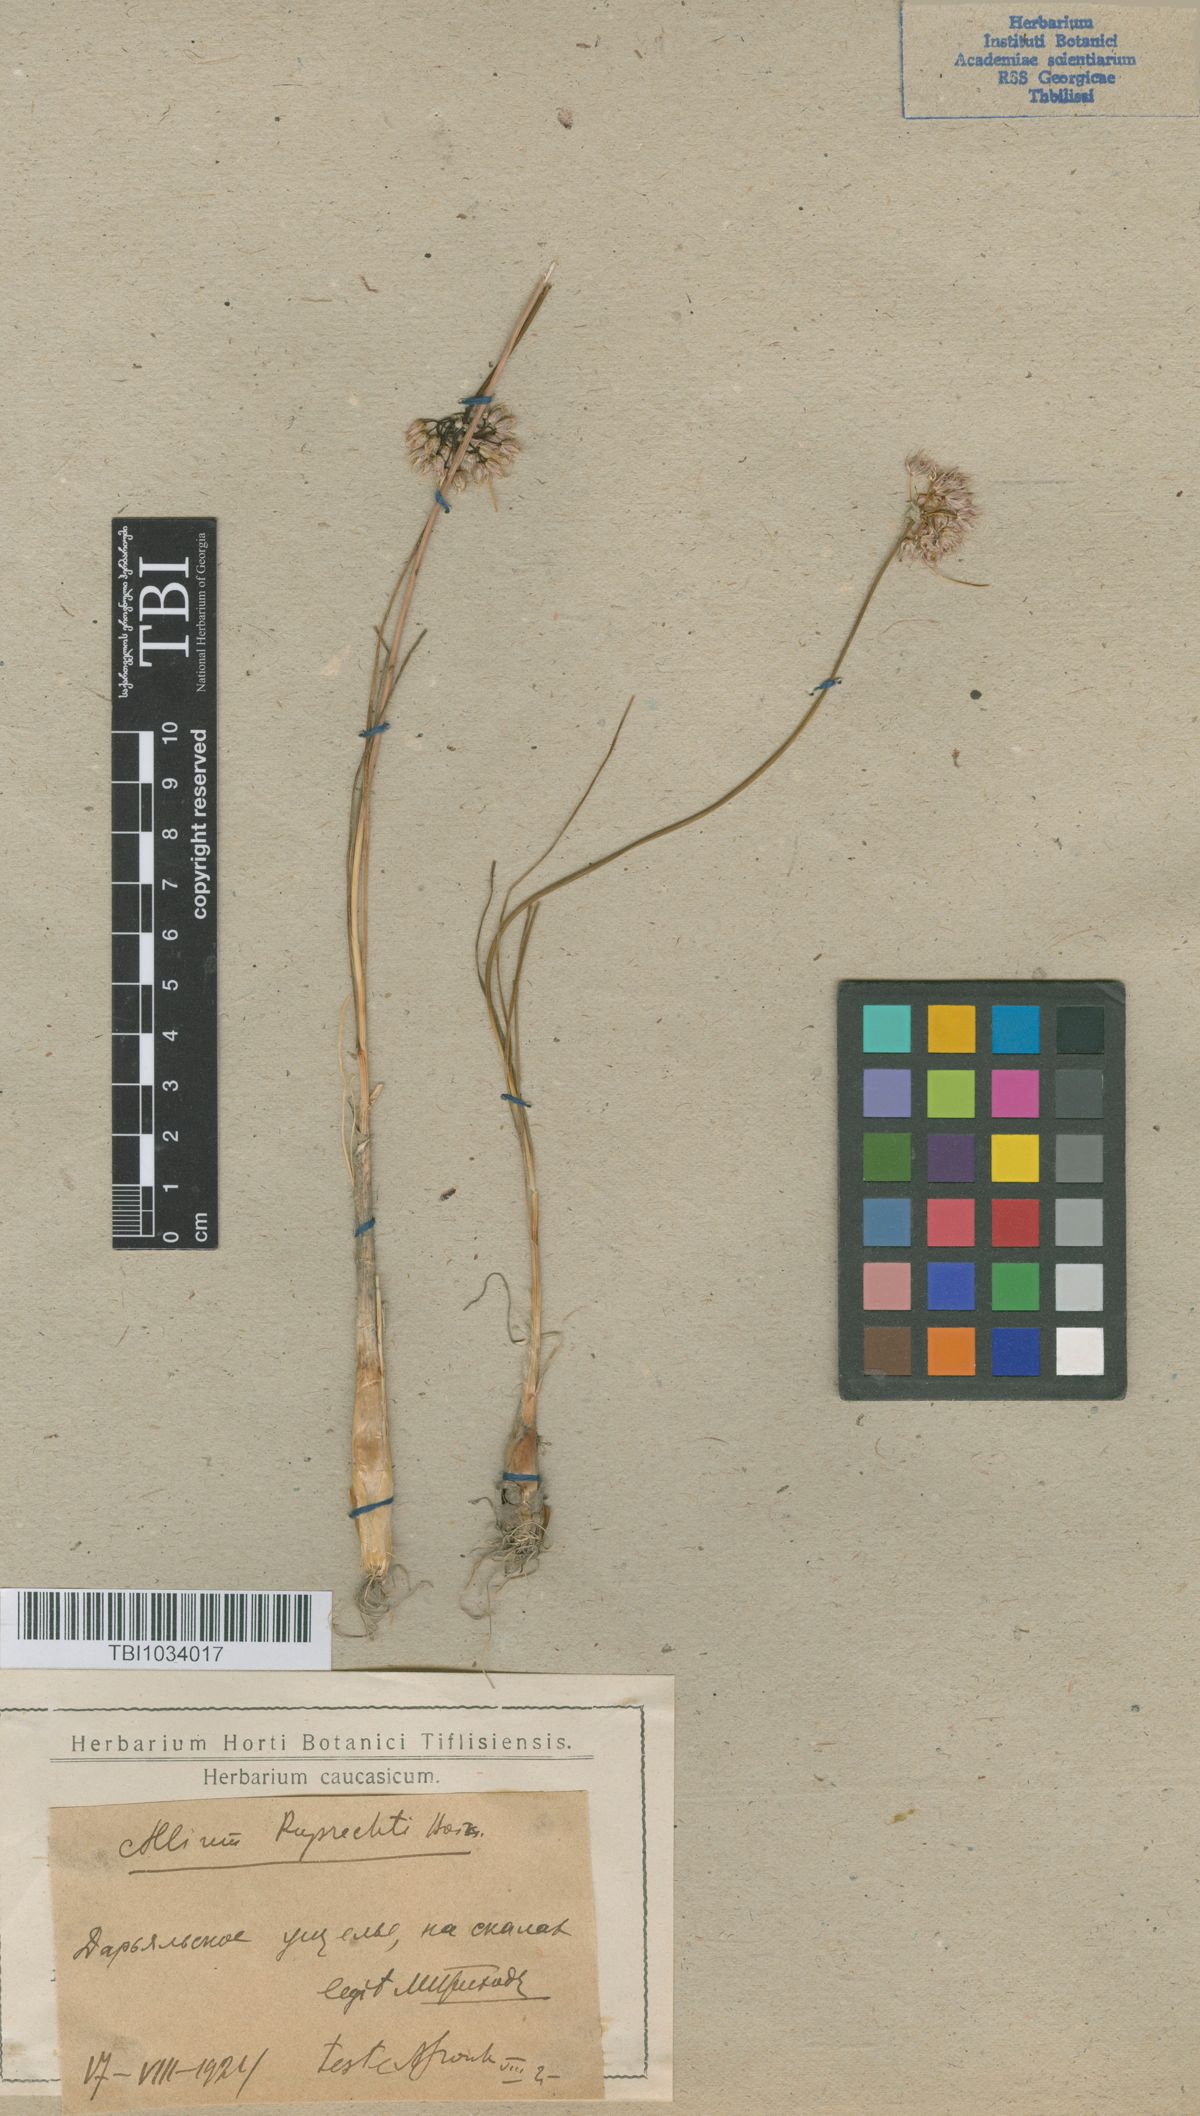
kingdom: Plantae
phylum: Tracheophyta
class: Liliopsida
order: Asparagales
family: Amaryllidaceae
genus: Allium
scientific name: Allium saxatile
